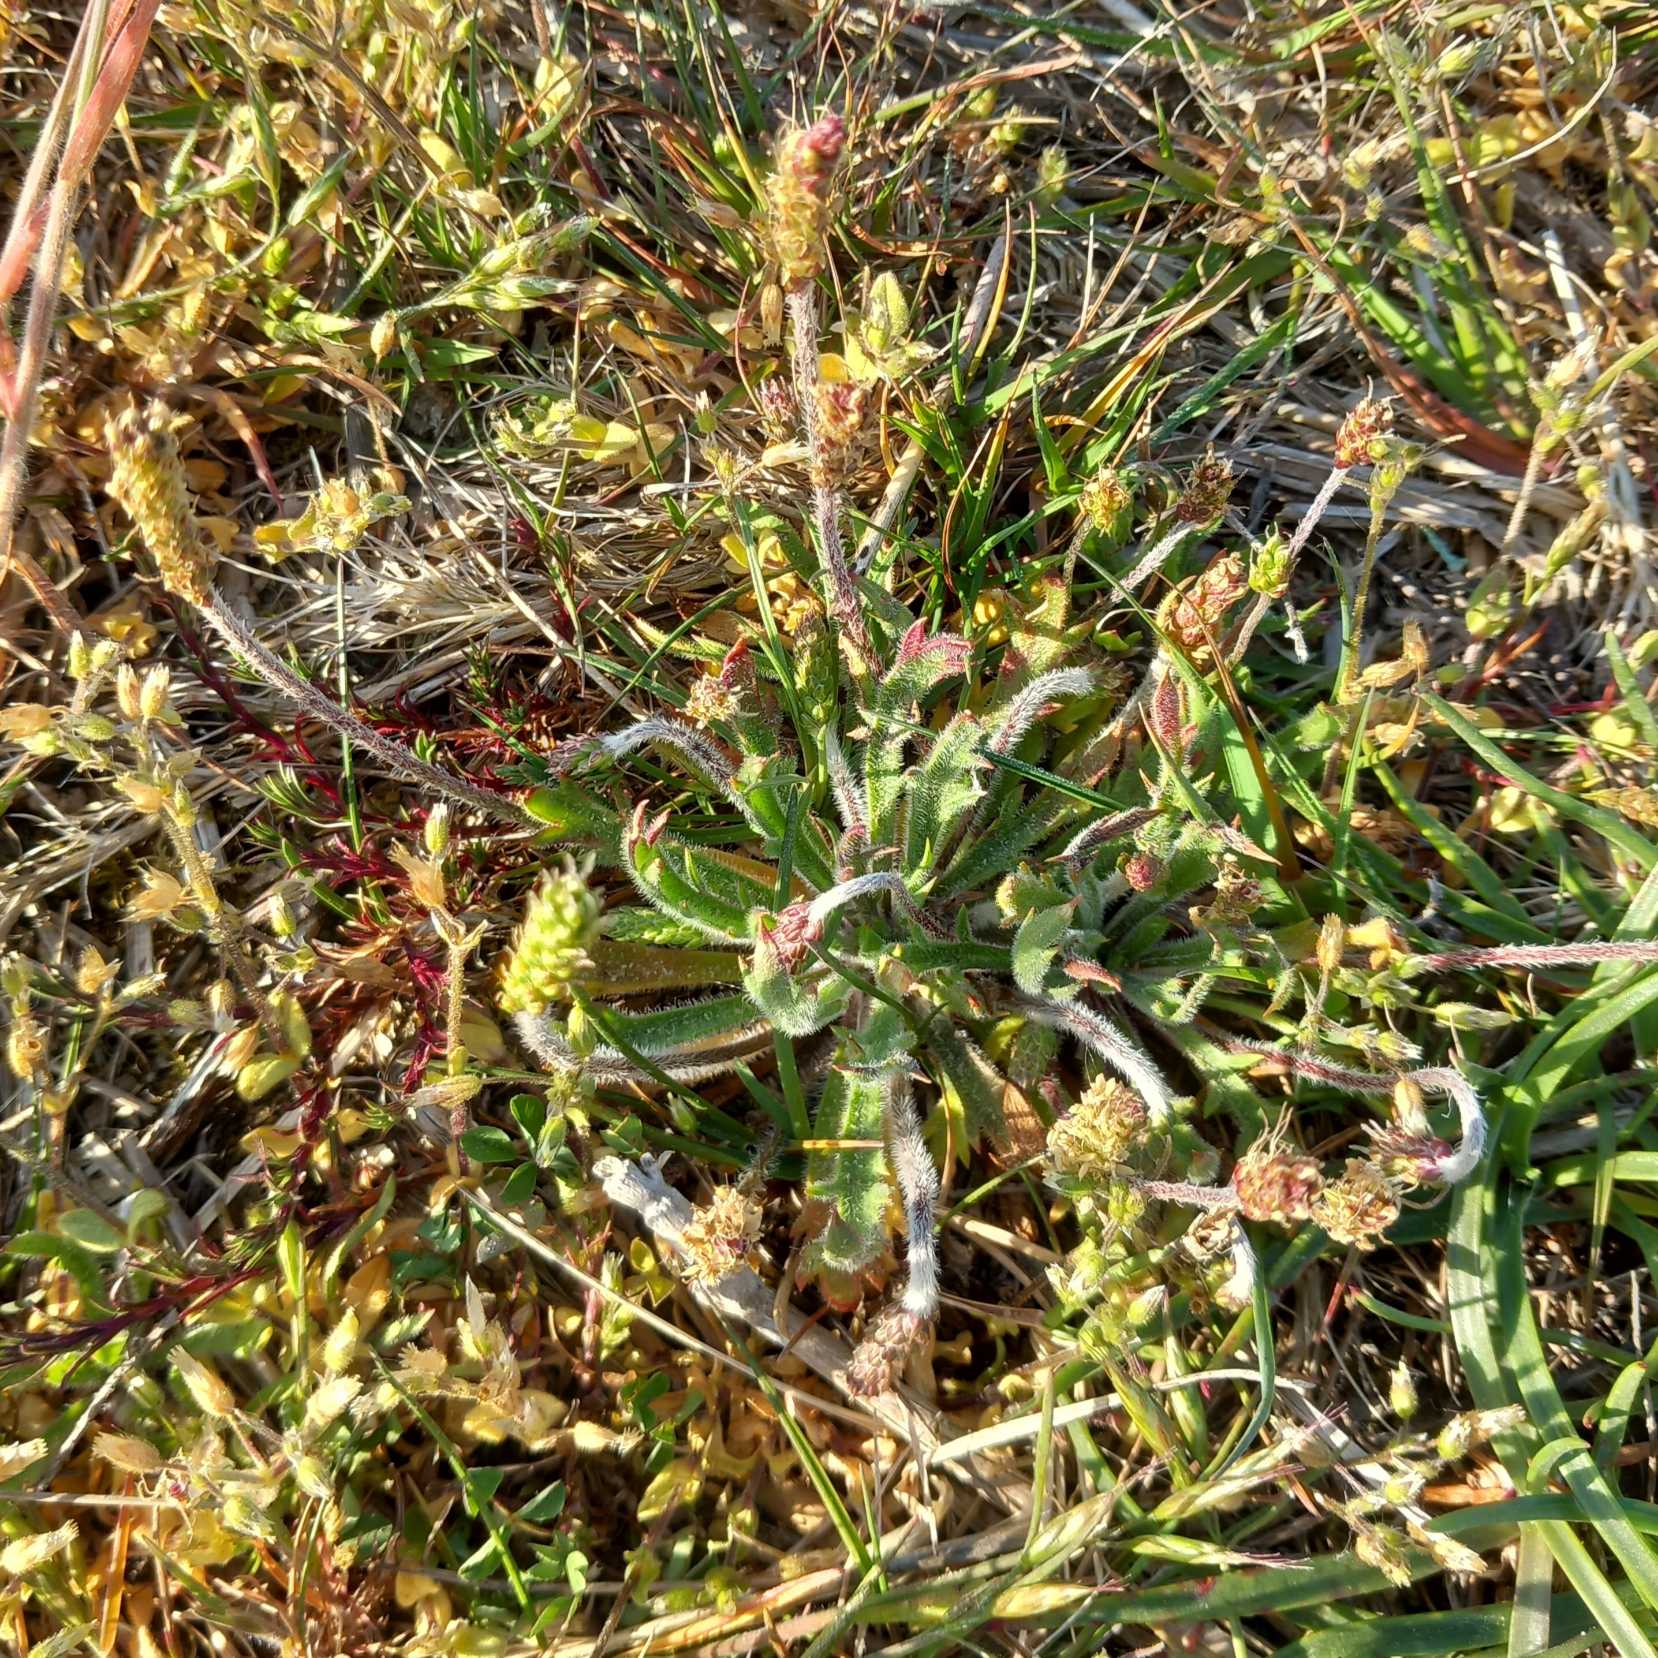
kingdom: Plantae
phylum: Tracheophyta
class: Magnoliopsida
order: Lamiales
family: Plantaginaceae
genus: Plantago
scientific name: Plantago coronopus
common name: Fliget vejbred
